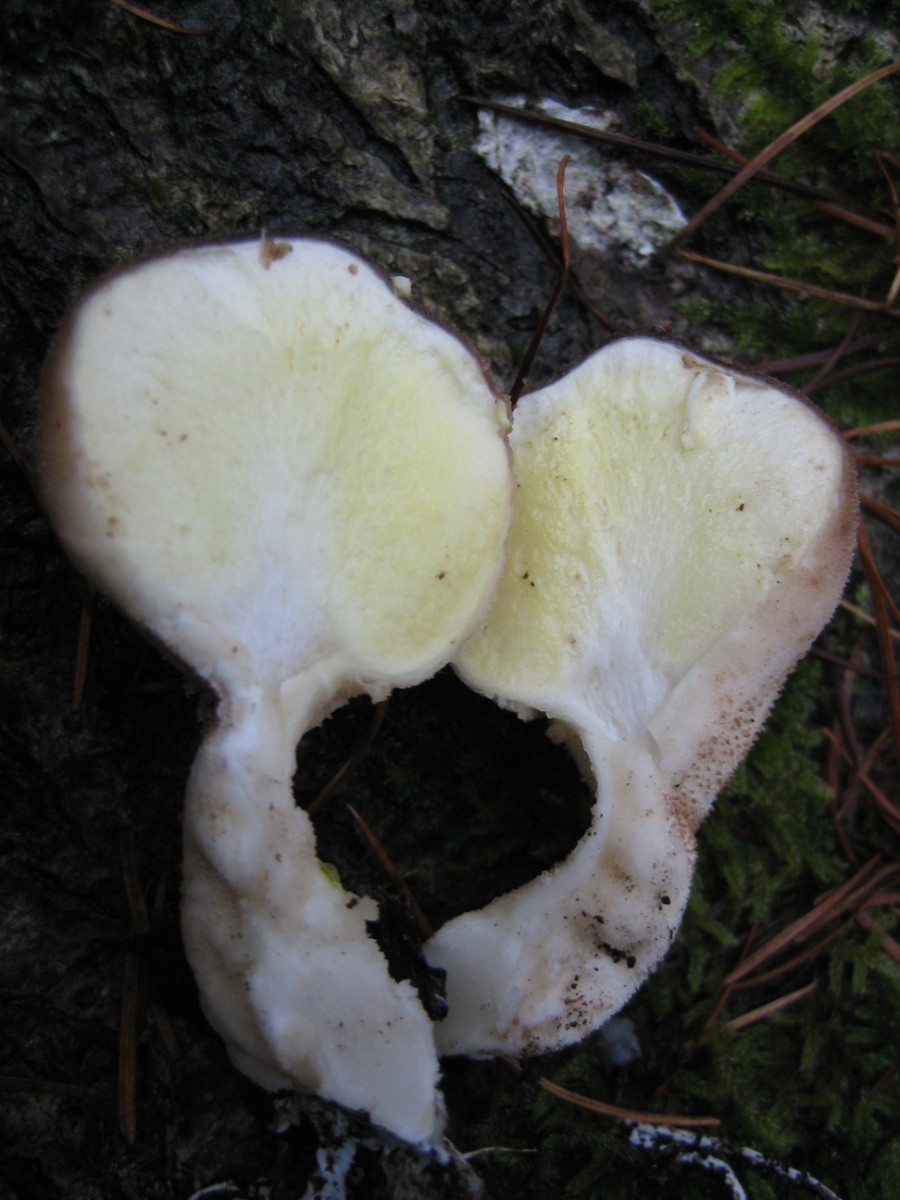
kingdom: Fungi
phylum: Basidiomycota
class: Agaricomycetes
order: Agaricales
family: Lycoperdaceae
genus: Apioperdon
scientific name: Apioperdon pyriforme
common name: pære-støvbold
